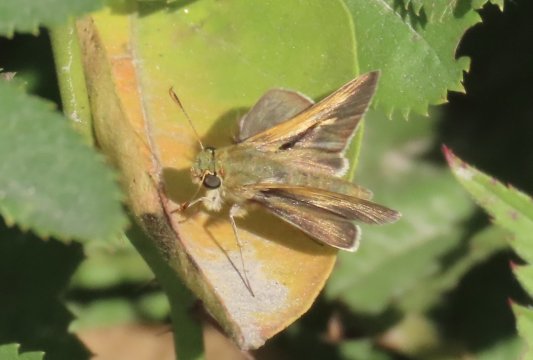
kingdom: Animalia
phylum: Arthropoda
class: Insecta
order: Lepidoptera
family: Hesperiidae
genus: Polites
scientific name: Polites themistocles
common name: Tawny-edged Skipper
